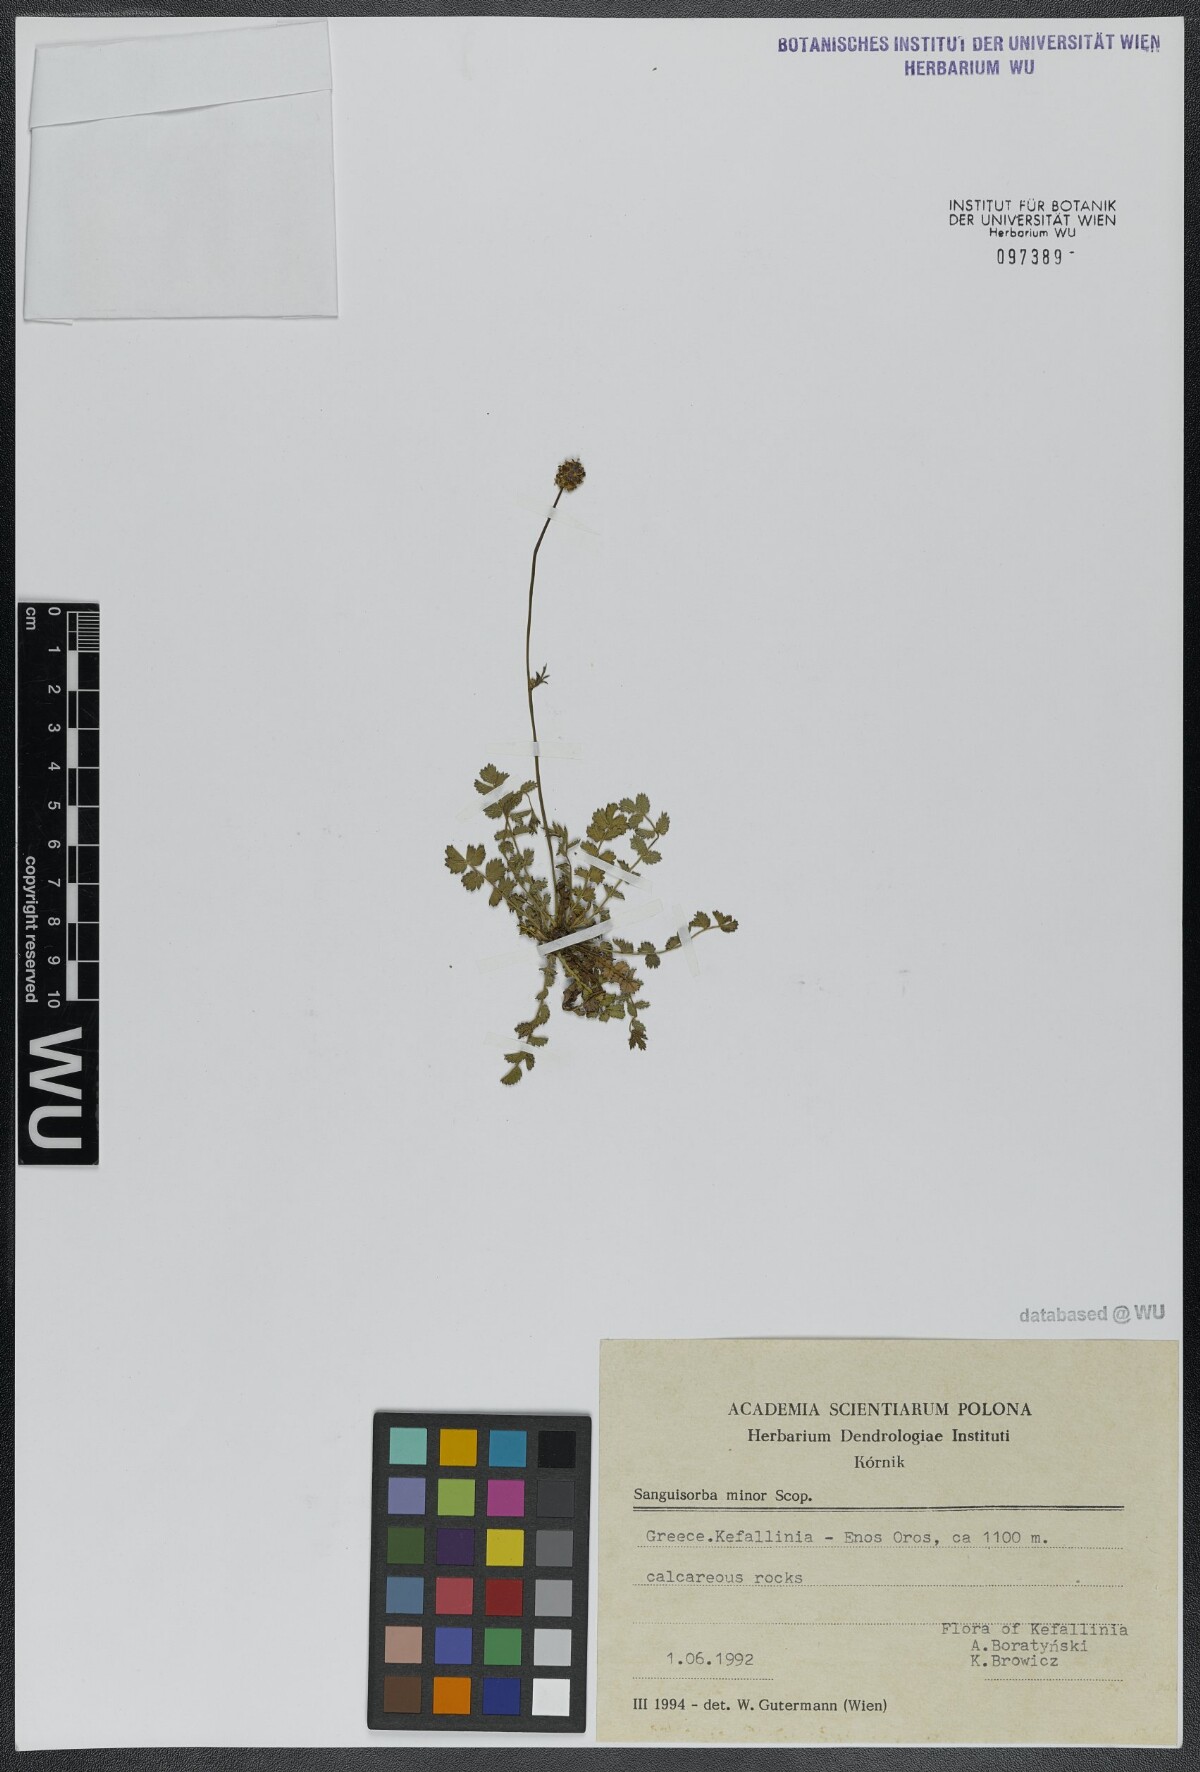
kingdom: Plantae
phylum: Tracheophyta
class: Magnoliopsida
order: Rosales
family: Rosaceae
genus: Poterium
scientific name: Poterium sanguisorba
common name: Salad burnet
